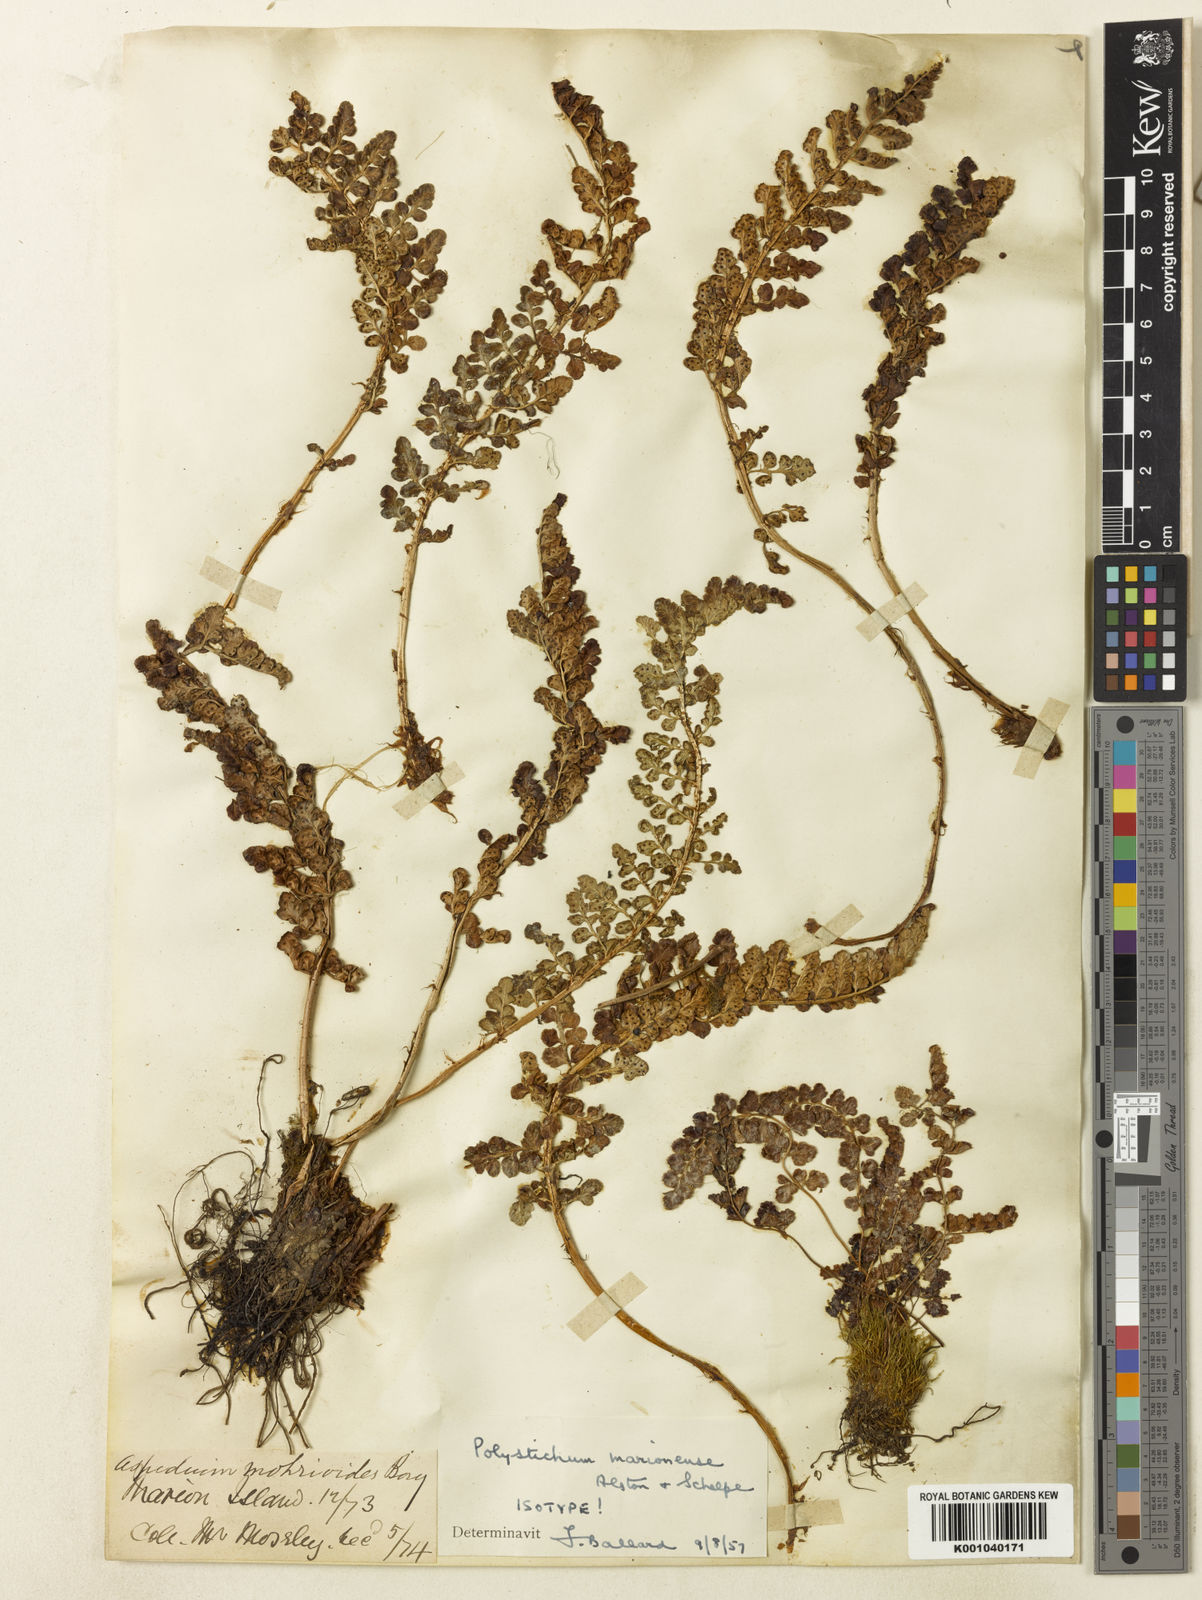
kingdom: Plantae
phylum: Tracheophyta
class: Polypodiopsida
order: Polypodiales
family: Dryopteridaceae
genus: Polystichum
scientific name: Polystichum marionense
